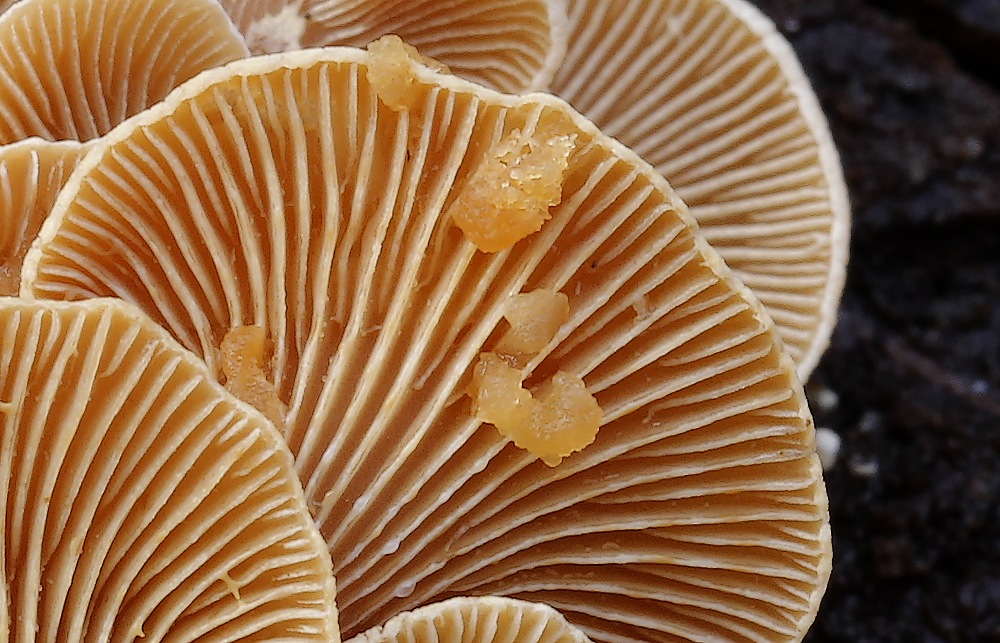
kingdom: Fungi
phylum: Basidiomycota
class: Agaricomycetes
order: Agaricales
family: Mycenaceae
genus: Panellus
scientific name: Panellus stipticus
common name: kliddet epaulethat
